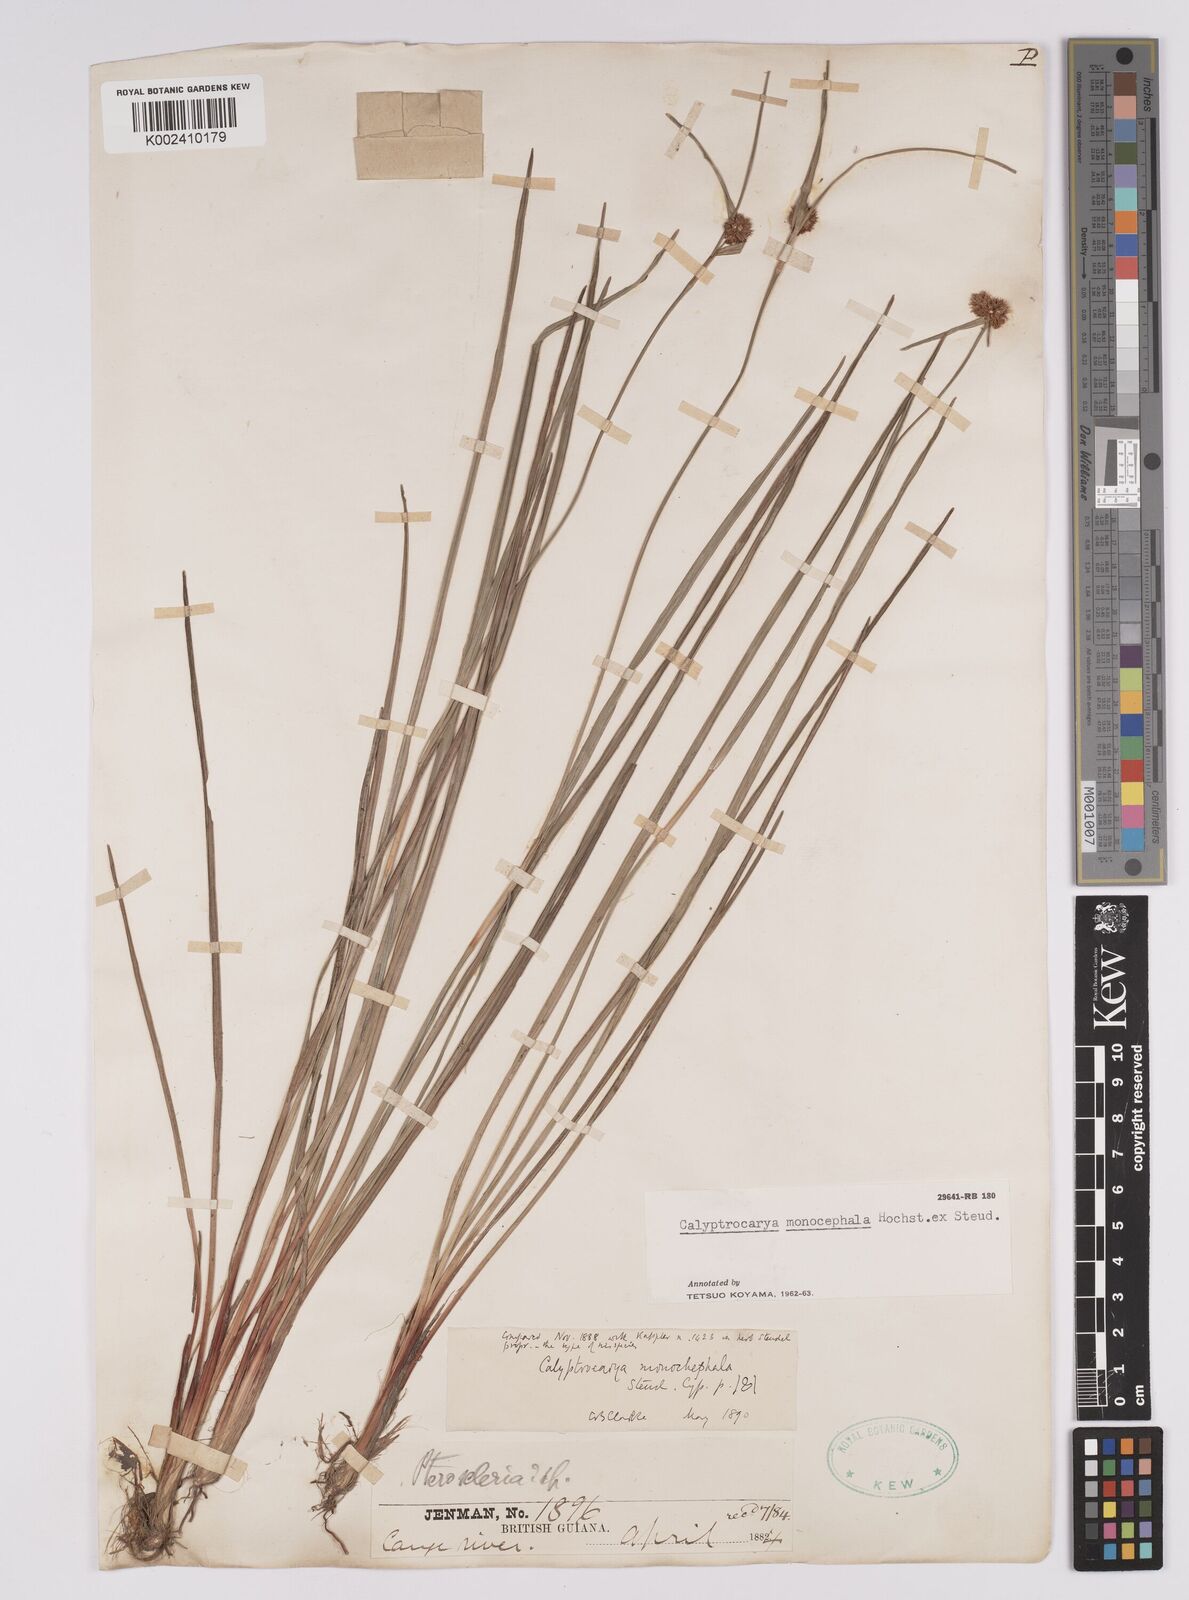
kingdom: Plantae
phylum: Tracheophyta
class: Liliopsida
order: Poales
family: Cyperaceae
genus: Calyptrocarya
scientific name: Calyptrocarya glomerulata
